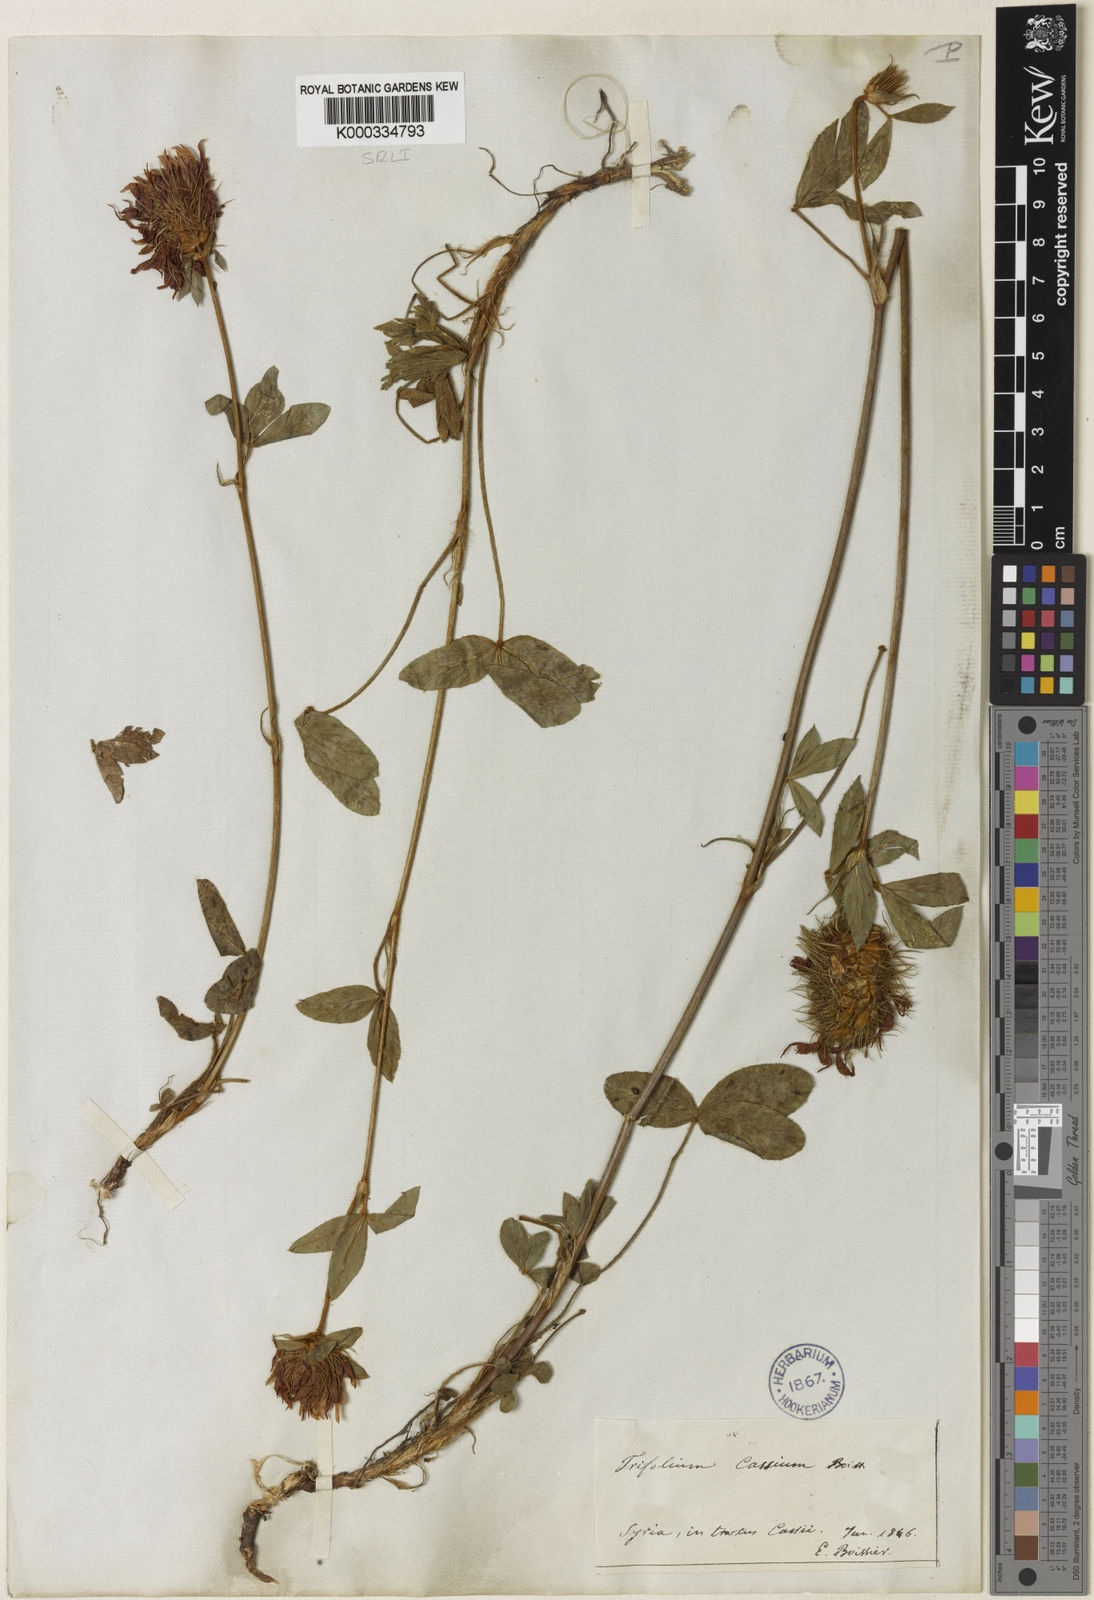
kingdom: Plantae
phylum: Tracheophyta
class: Magnoliopsida
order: Fabales
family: Fabaceae
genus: Trifolium
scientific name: Trifolium ochroleucon
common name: Sulphur clover
